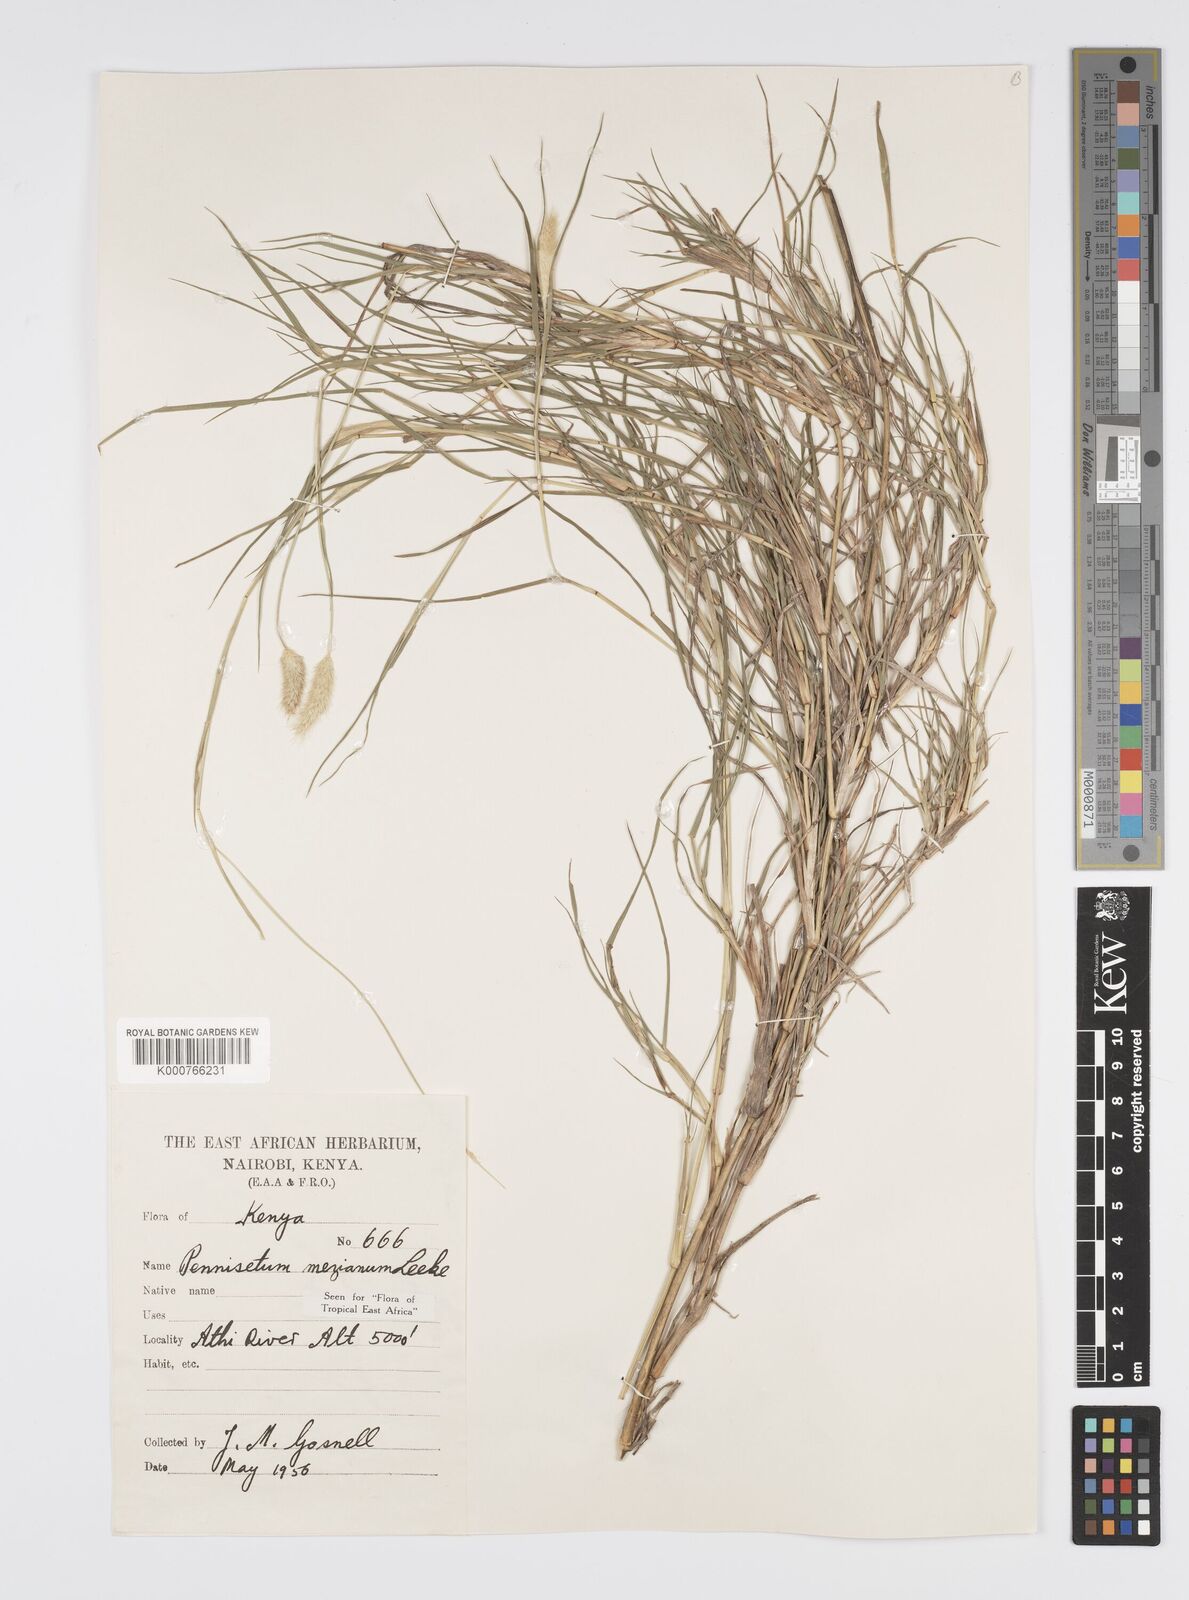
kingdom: Plantae
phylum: Tracheophyta
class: Liliopsida
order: Poales
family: Poaceae
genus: Cenchrus
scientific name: Cenchrus mezianus
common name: Bamboo grass
